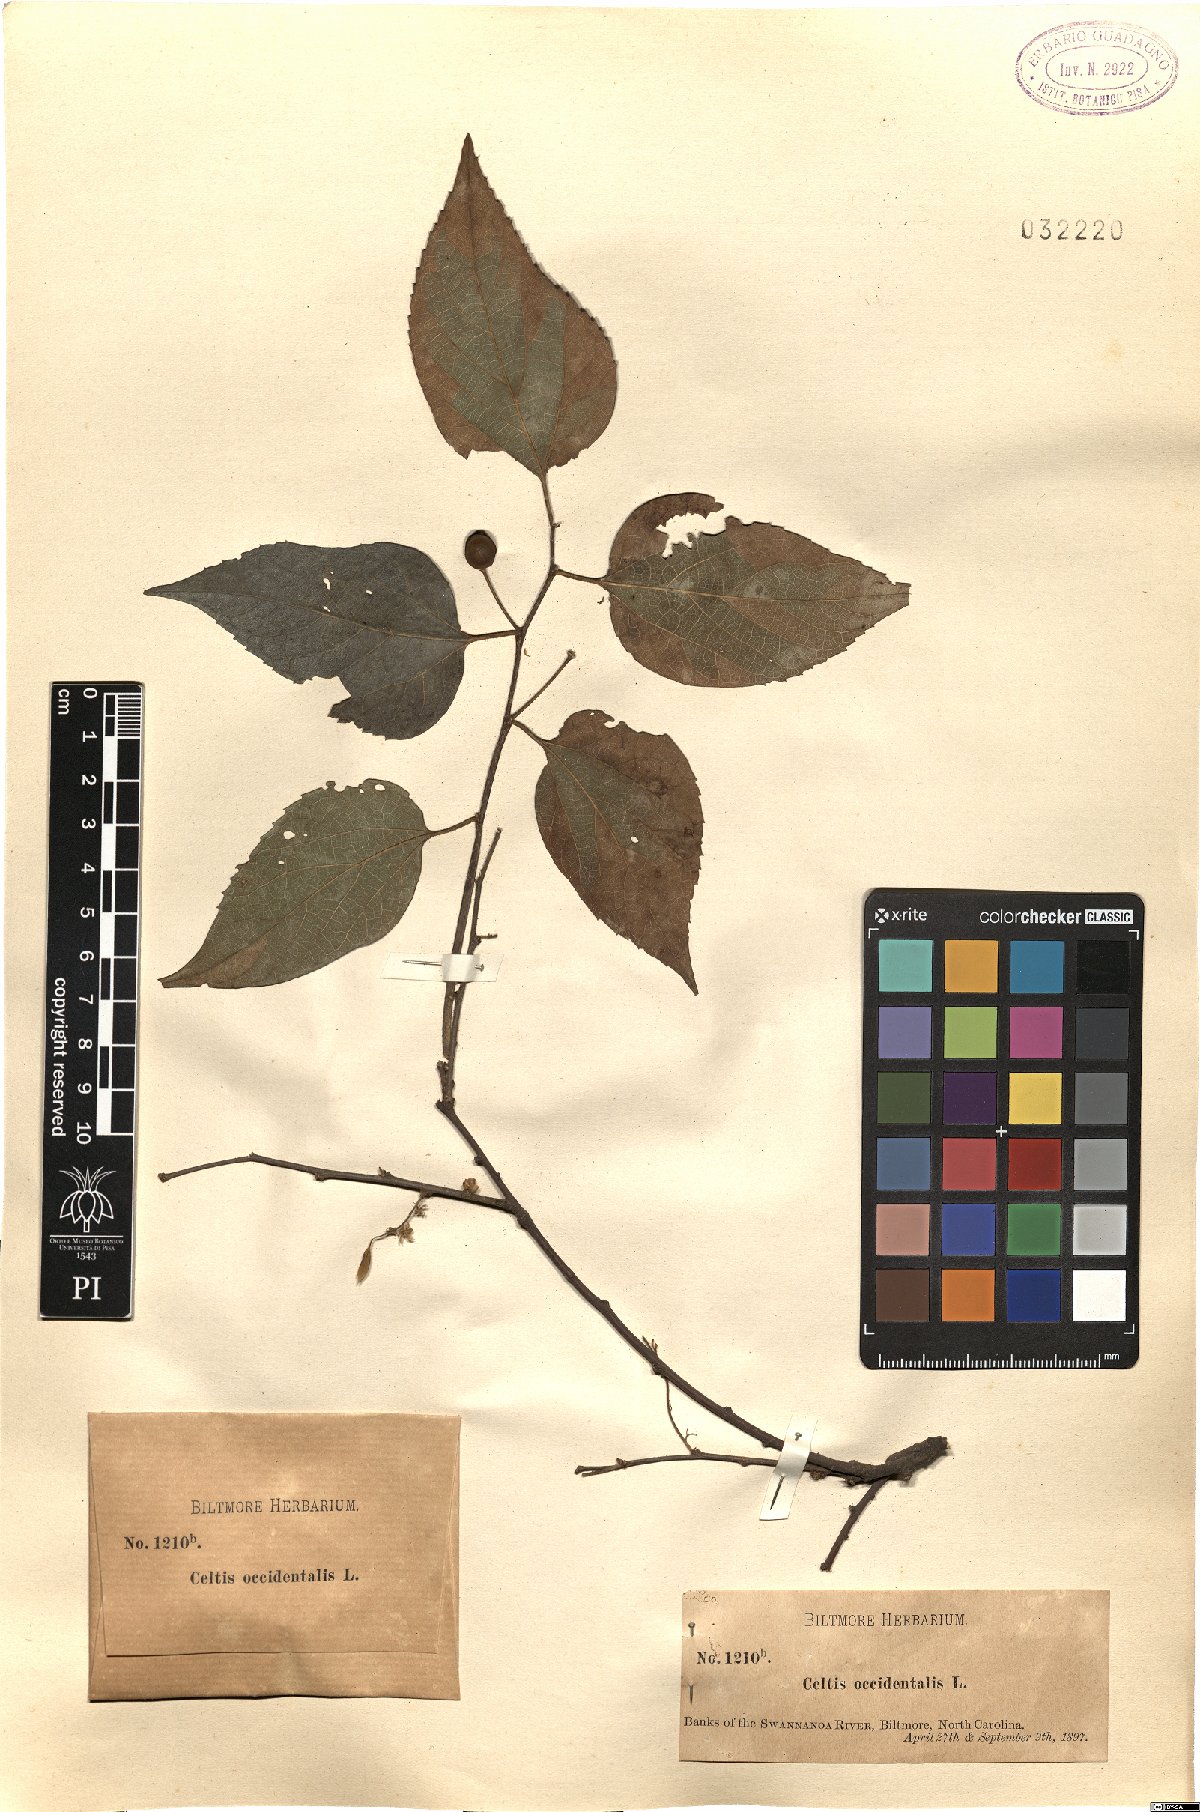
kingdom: Plantae
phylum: Tracheophyta
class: Magnoliopsida
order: Rosales
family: Cannabaceae
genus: Celtis
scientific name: Celtis occidentalis
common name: Common hackberry
